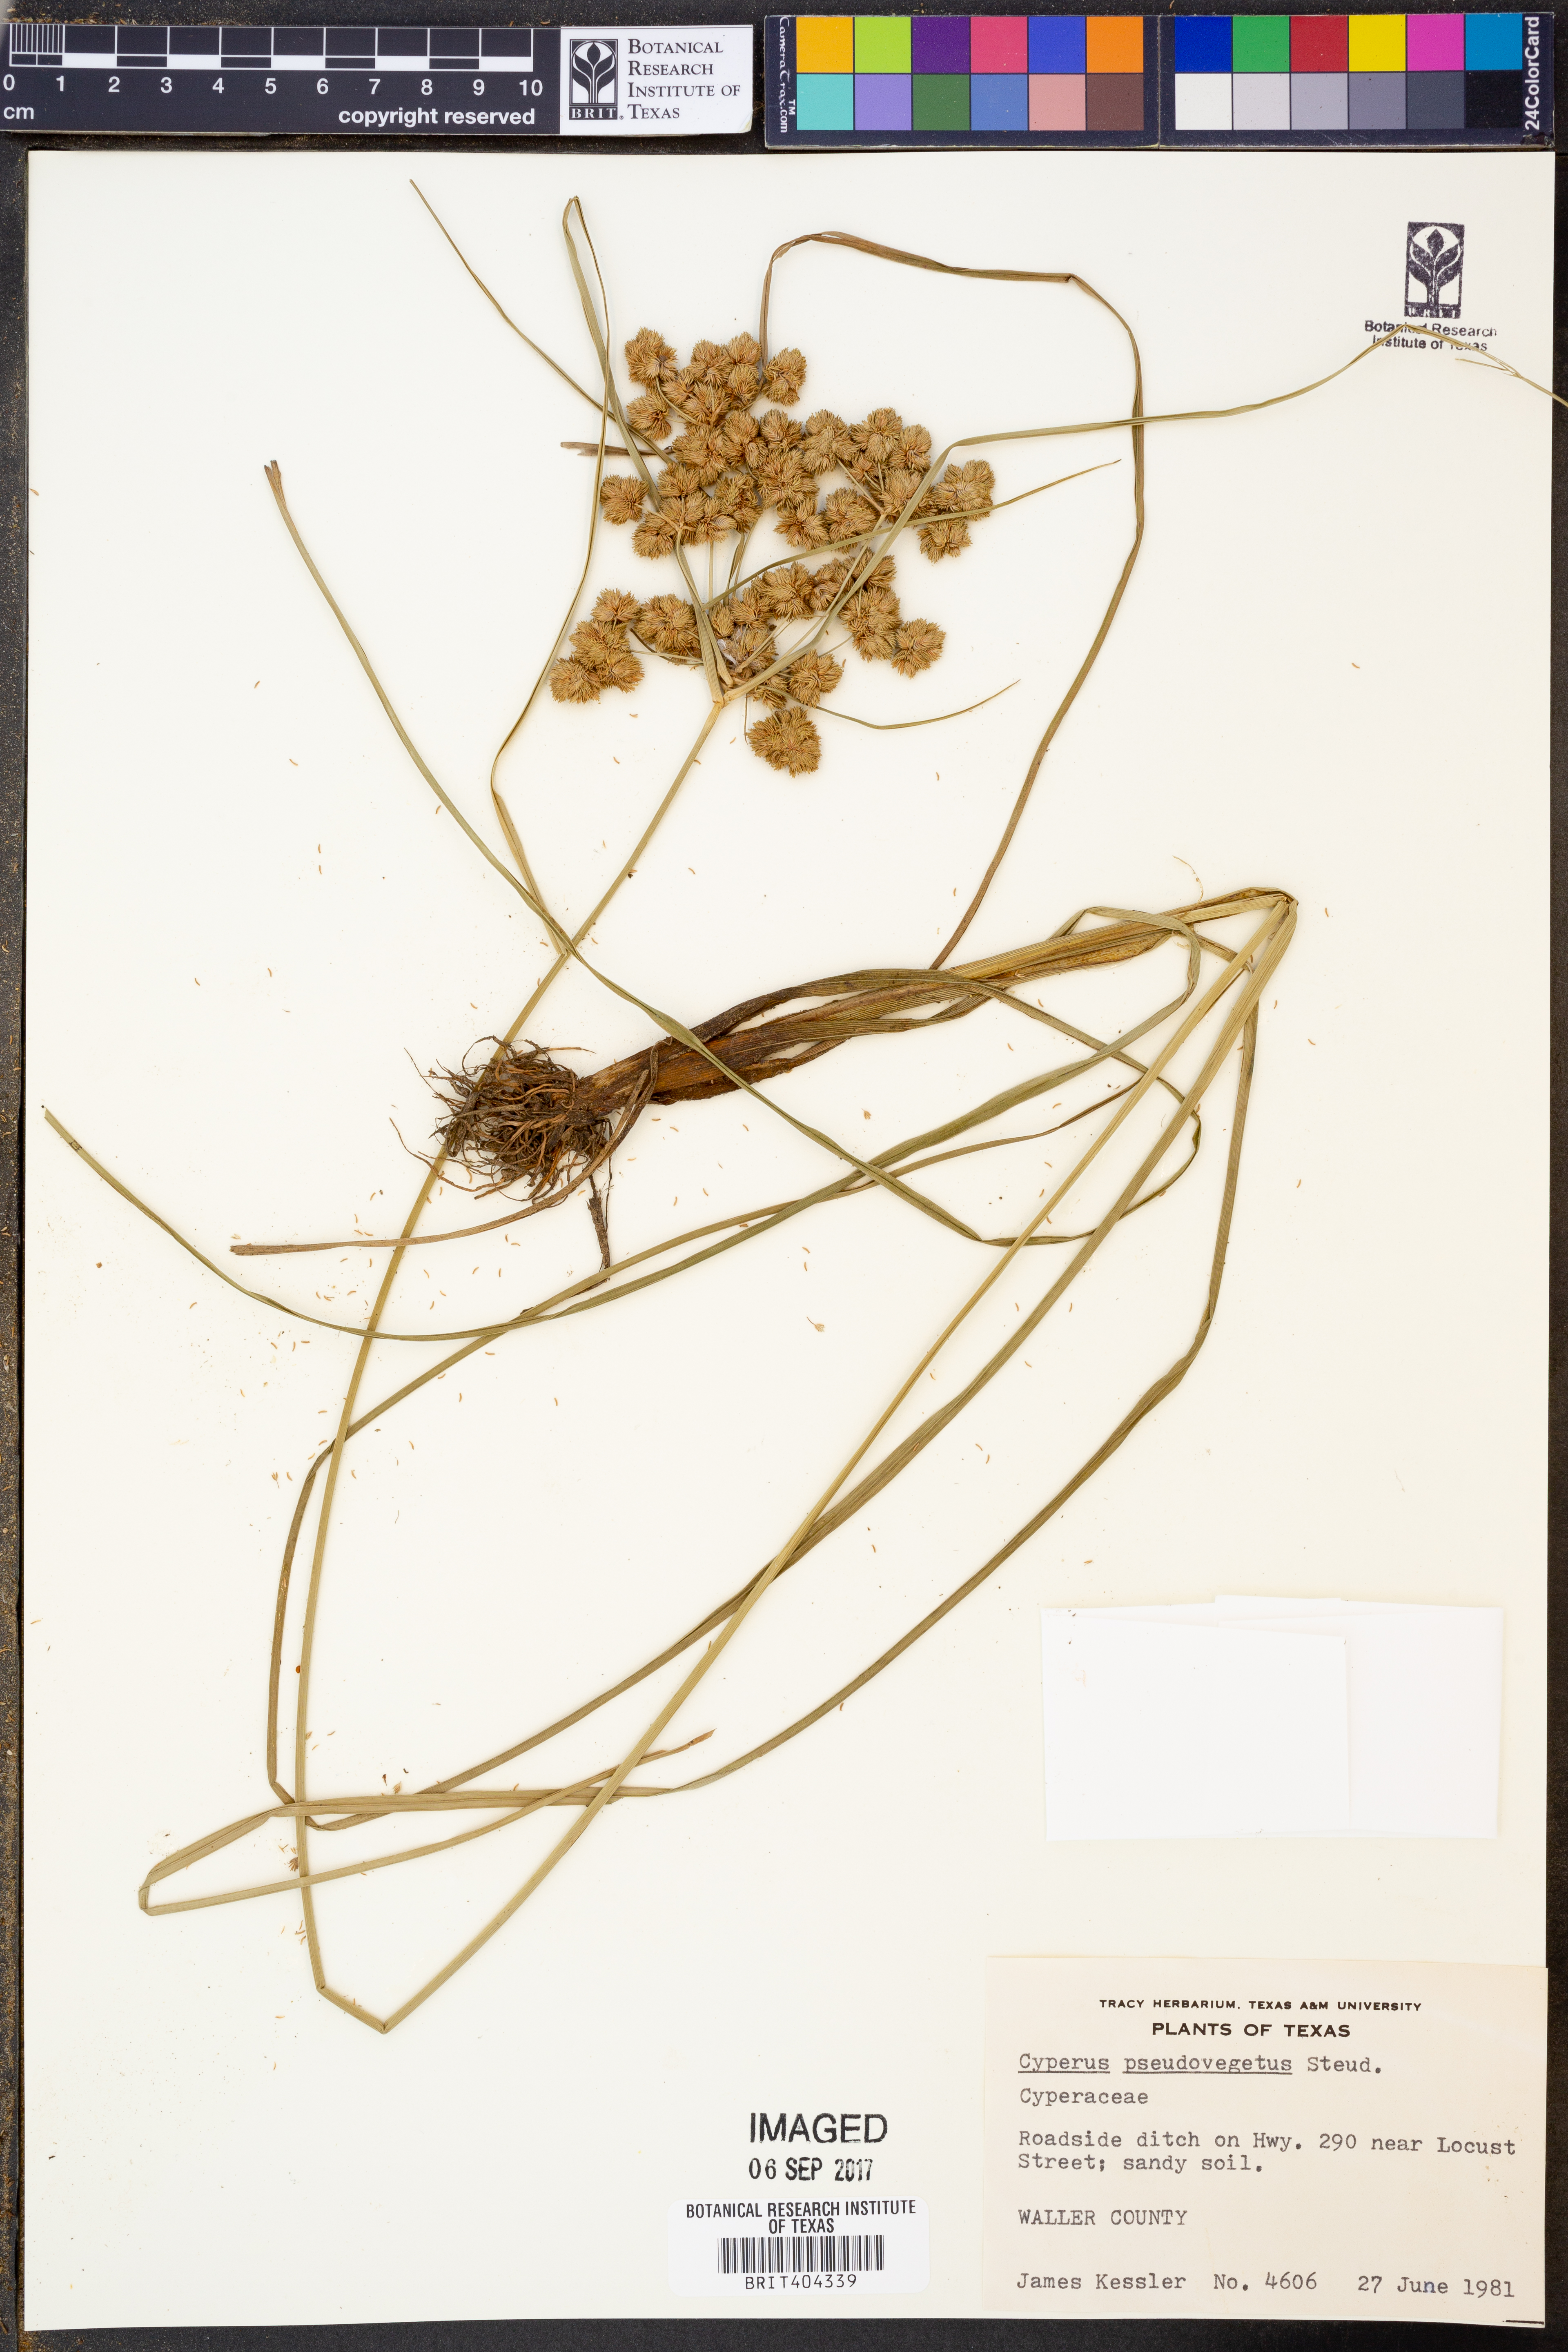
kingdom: Plantae
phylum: Tracheophyta
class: Liliopsida
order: Poales
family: Cyperaceae
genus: Cyperus
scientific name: Cyperus pseudovegetus
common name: Marsh flat sedge
